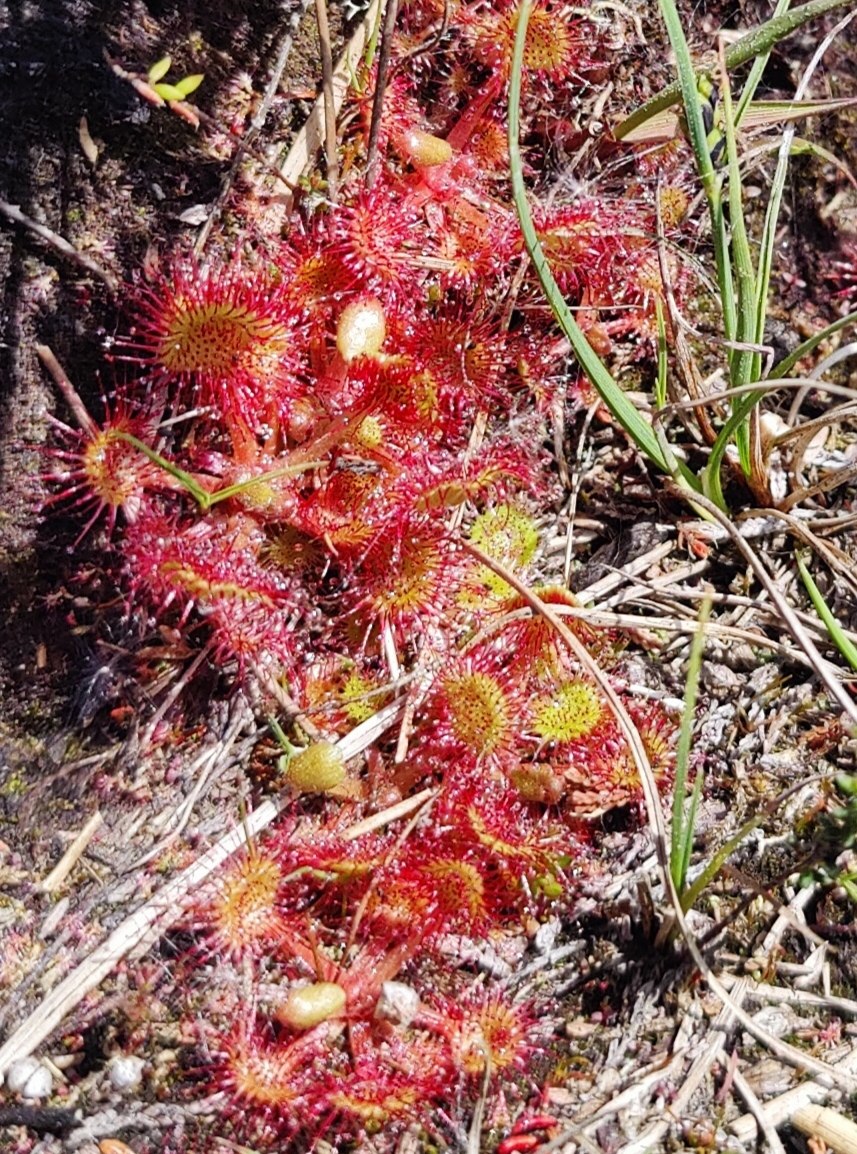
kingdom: Plantae
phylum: Tracheophyta
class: Magnoliopsida
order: Caryophyllales
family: Droseraceae
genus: Drosera
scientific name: Drosera rotundifolia
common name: Rundbladet soldug
